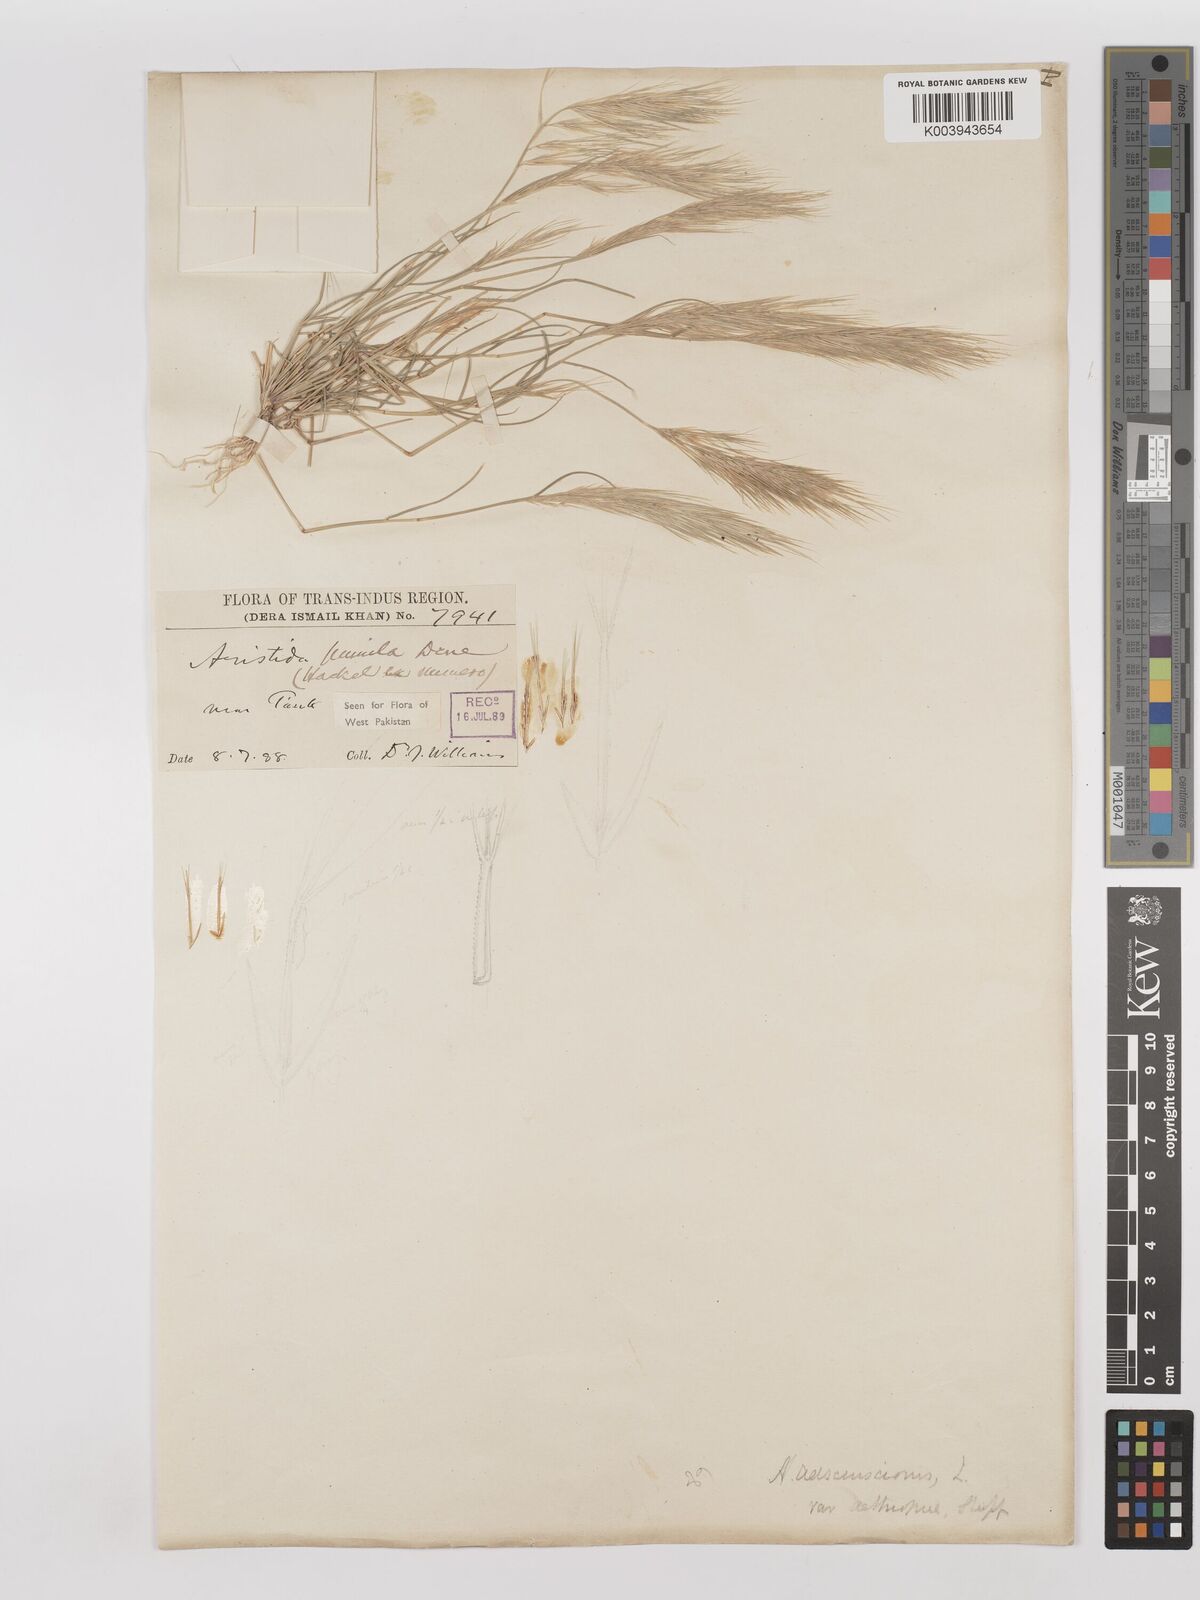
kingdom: Plantae
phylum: Tracheophyta
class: Liliopsida
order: Poales
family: Poaceae
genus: Aristida
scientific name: Aristida adscensionis
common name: Sixweeks threeawn
